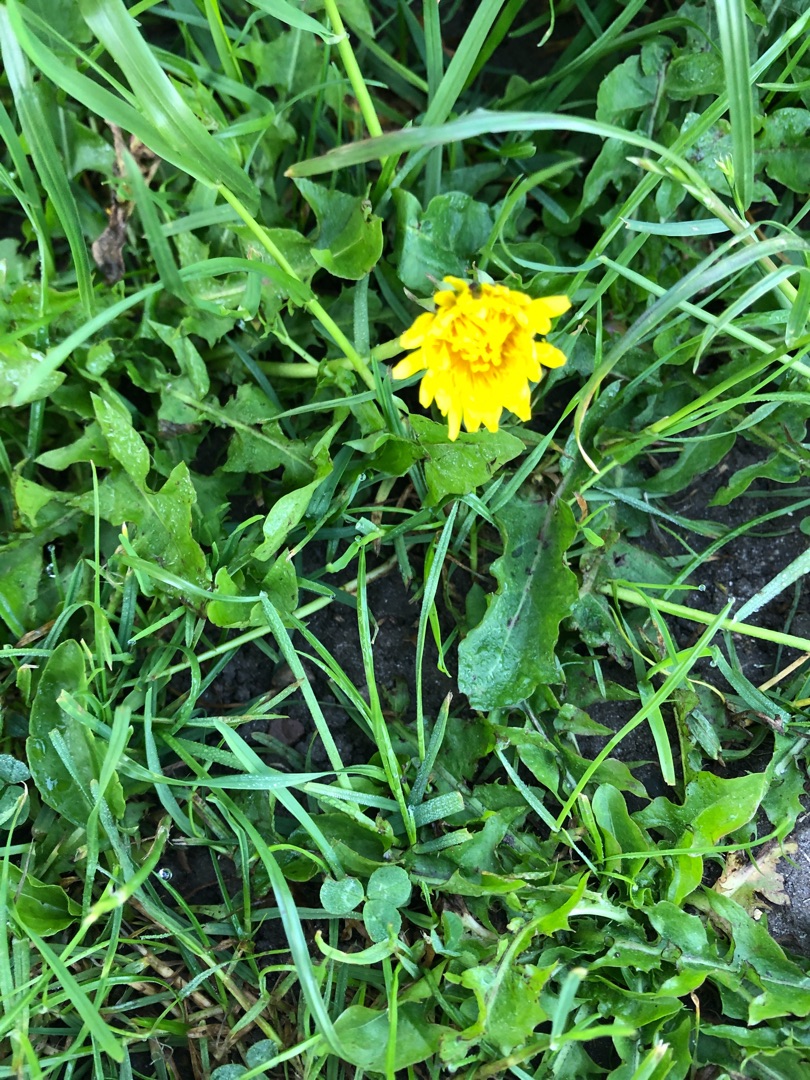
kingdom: Plantae
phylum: Tracheophyta
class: Magnoliopsida
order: Asterales
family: Asteraceae
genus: Taraxacum
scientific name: Taraxacum
